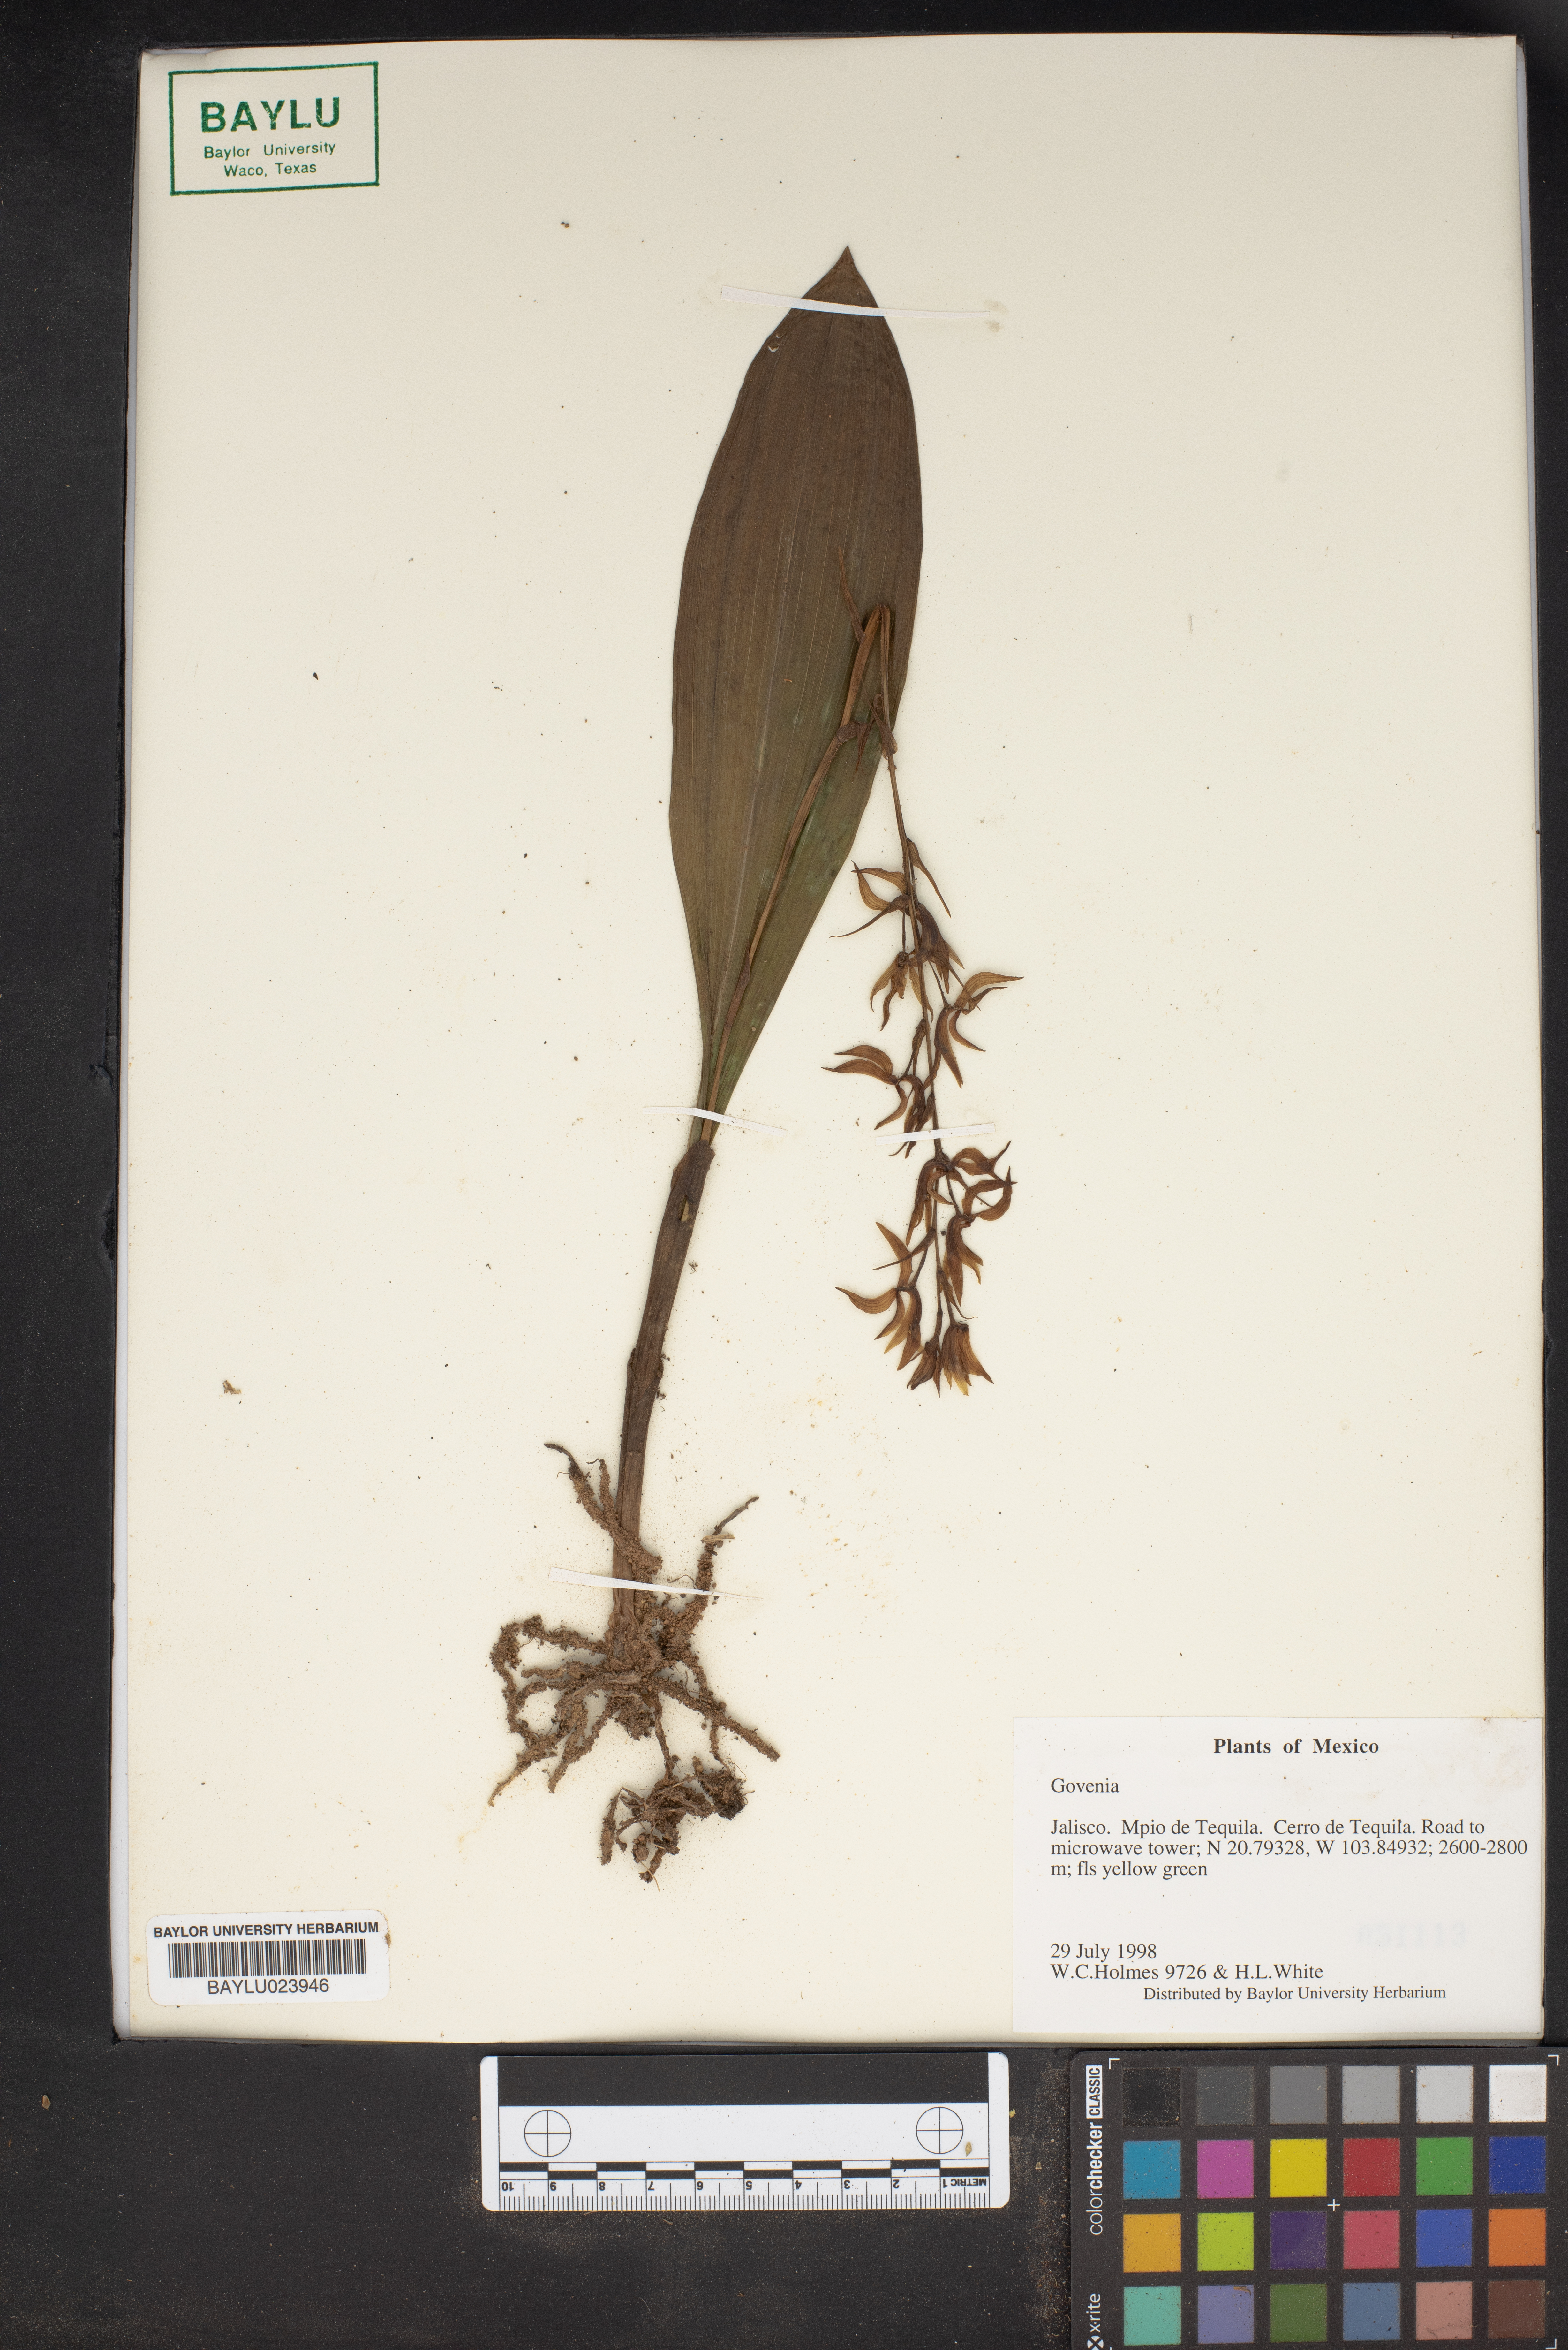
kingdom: Plantae
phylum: Tracheophyta
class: Liliopsida
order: Asparagales
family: Orchidaceae
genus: Govenia
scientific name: Govenia
